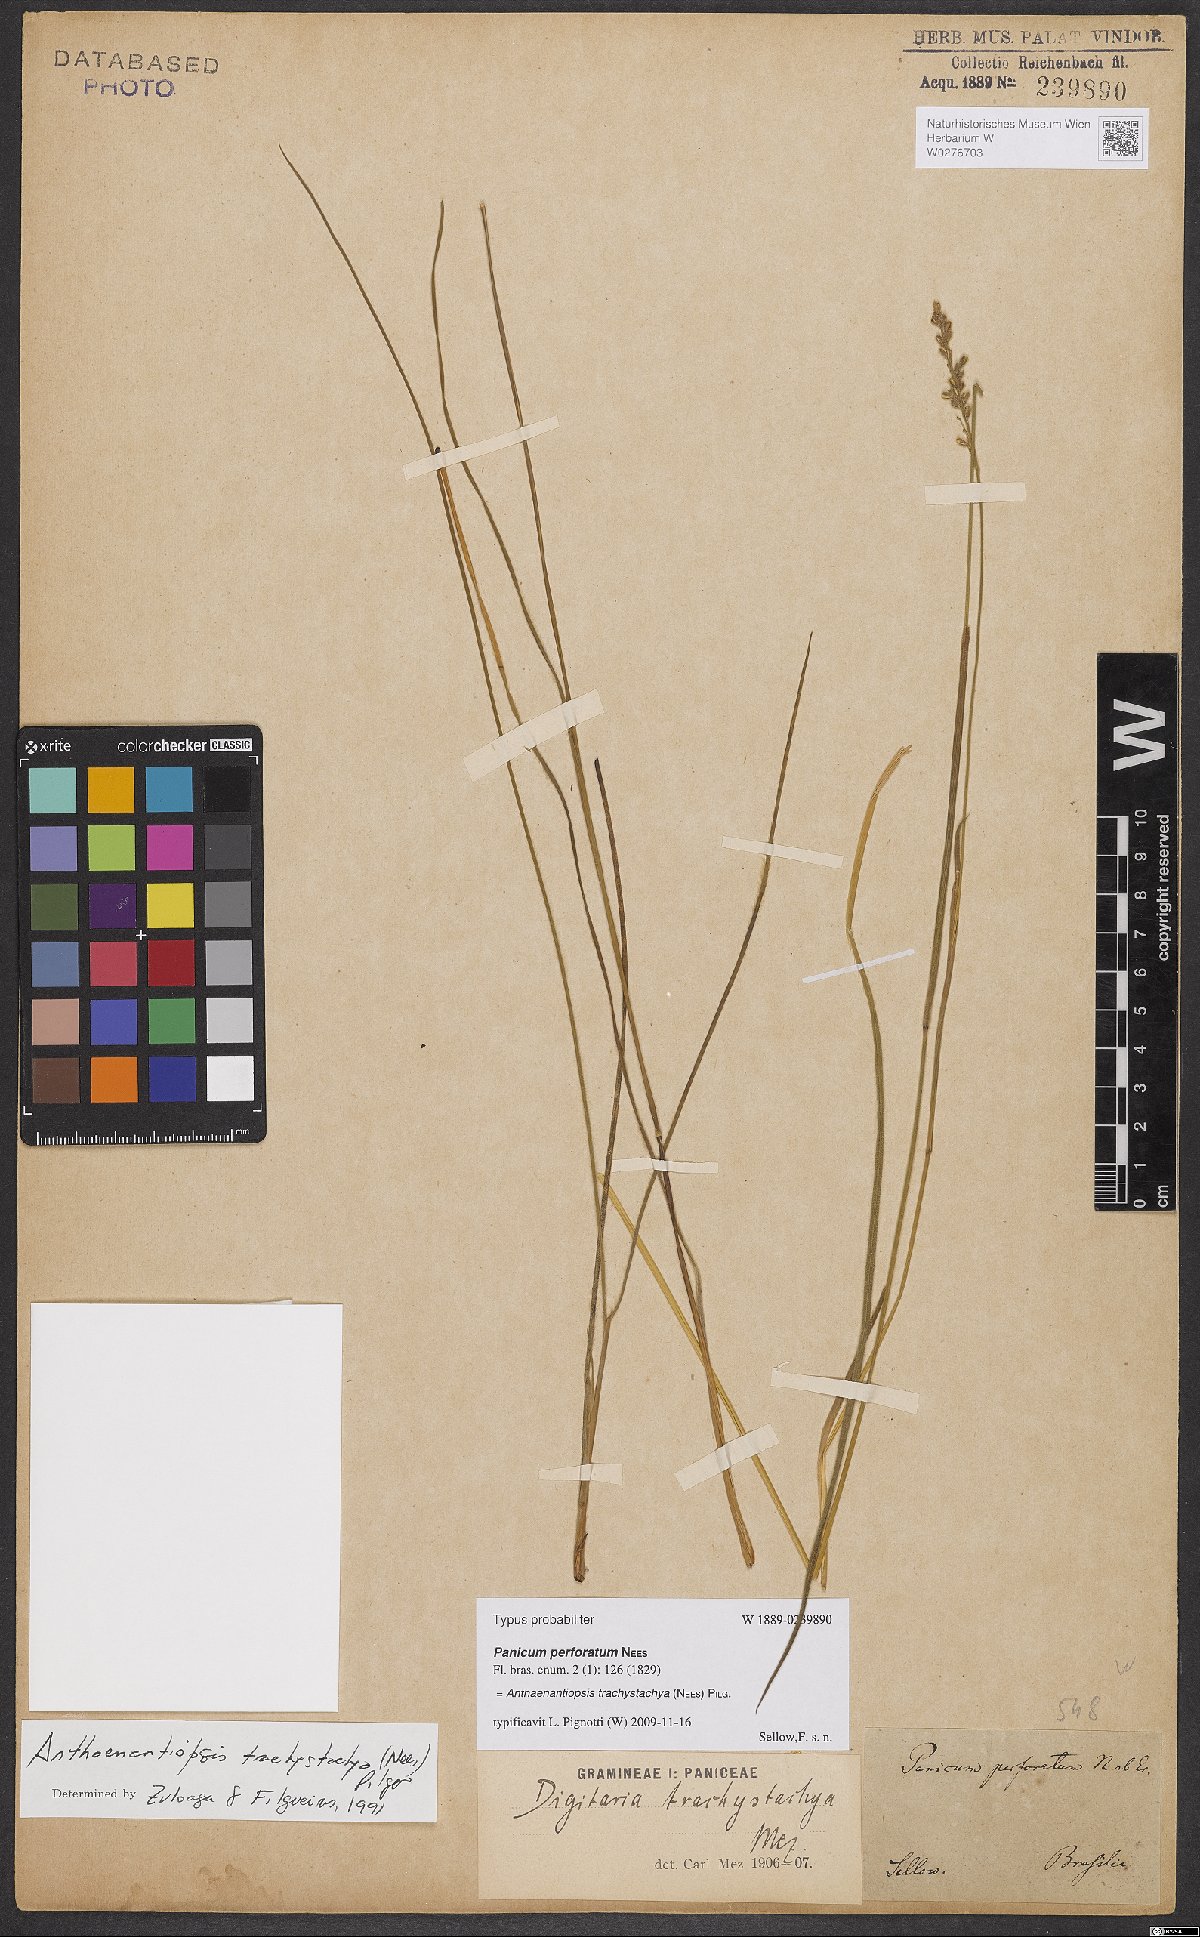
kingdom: Plantae
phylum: Tracheophyta
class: Liliopsida
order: Poales
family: Poaceae
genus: Anthaenantiopsis
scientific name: Anthaenantiopsis trachystachya
